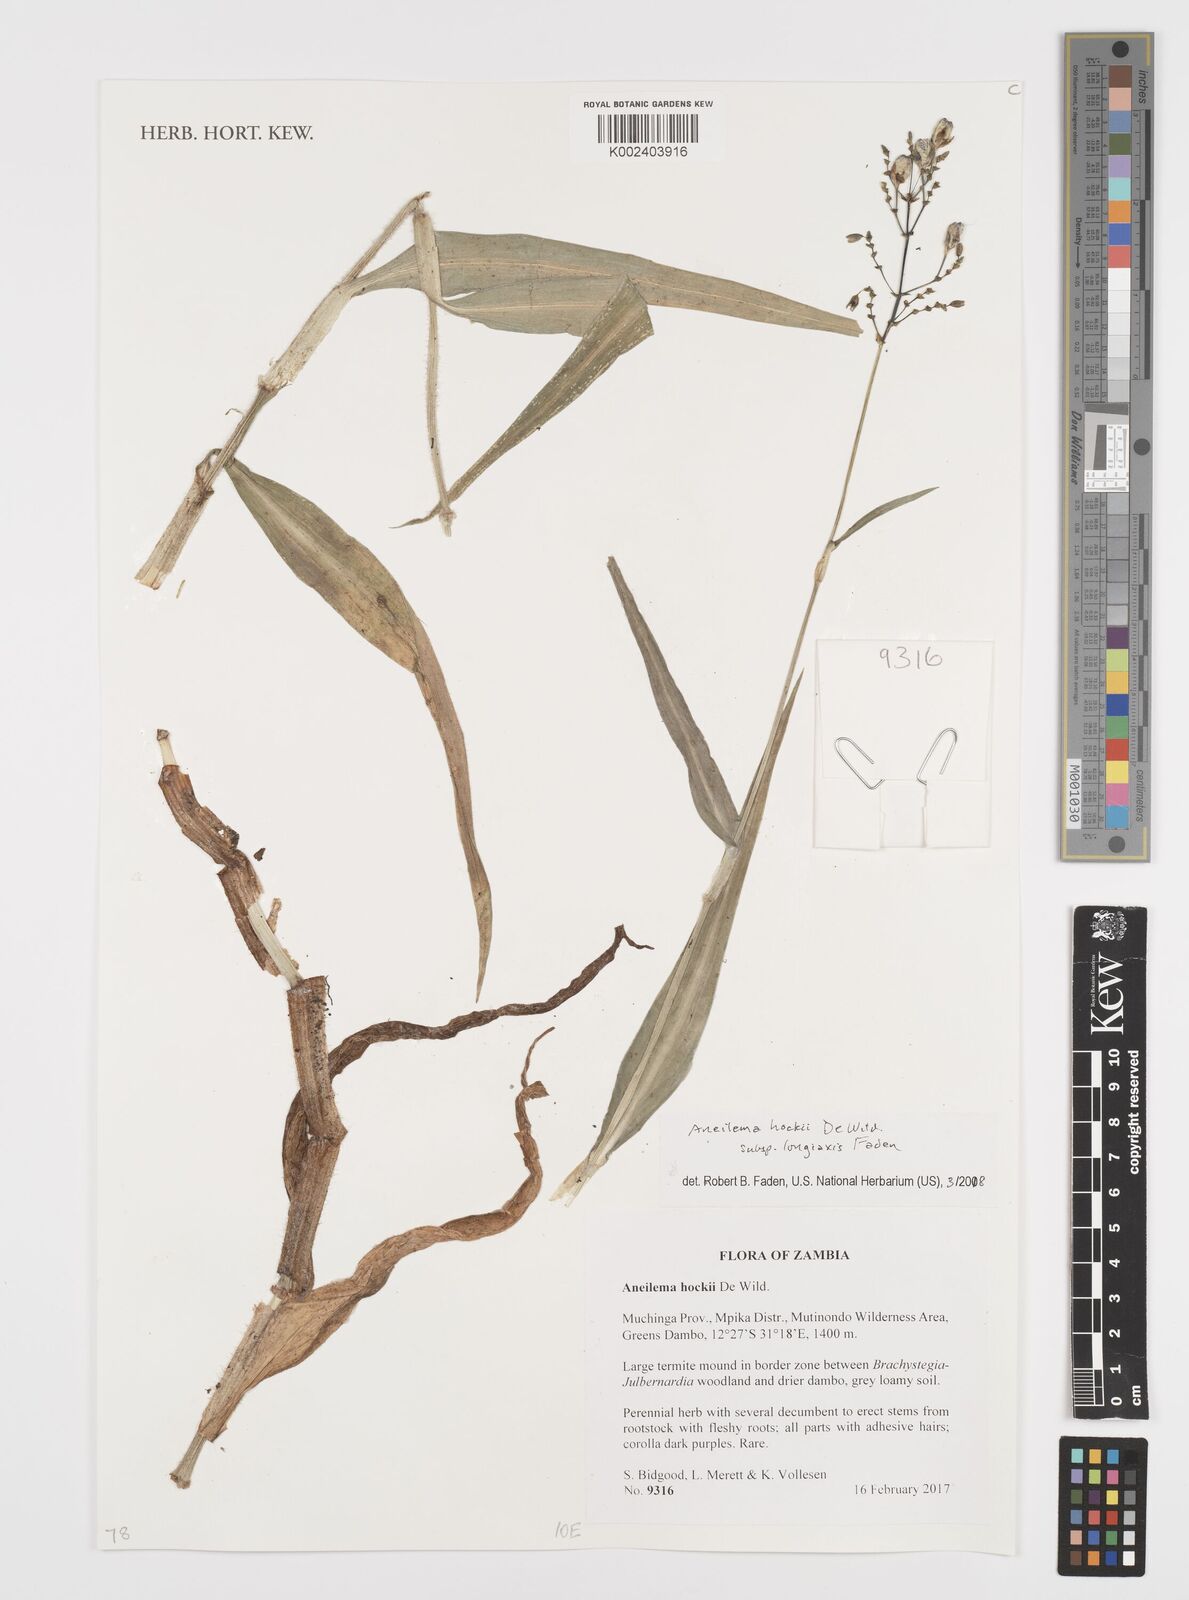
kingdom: Plantae
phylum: Tracheophyta
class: Liliopsida
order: Commelinales
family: Commelinaceae
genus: Aneilema
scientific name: Aneilema hockii
